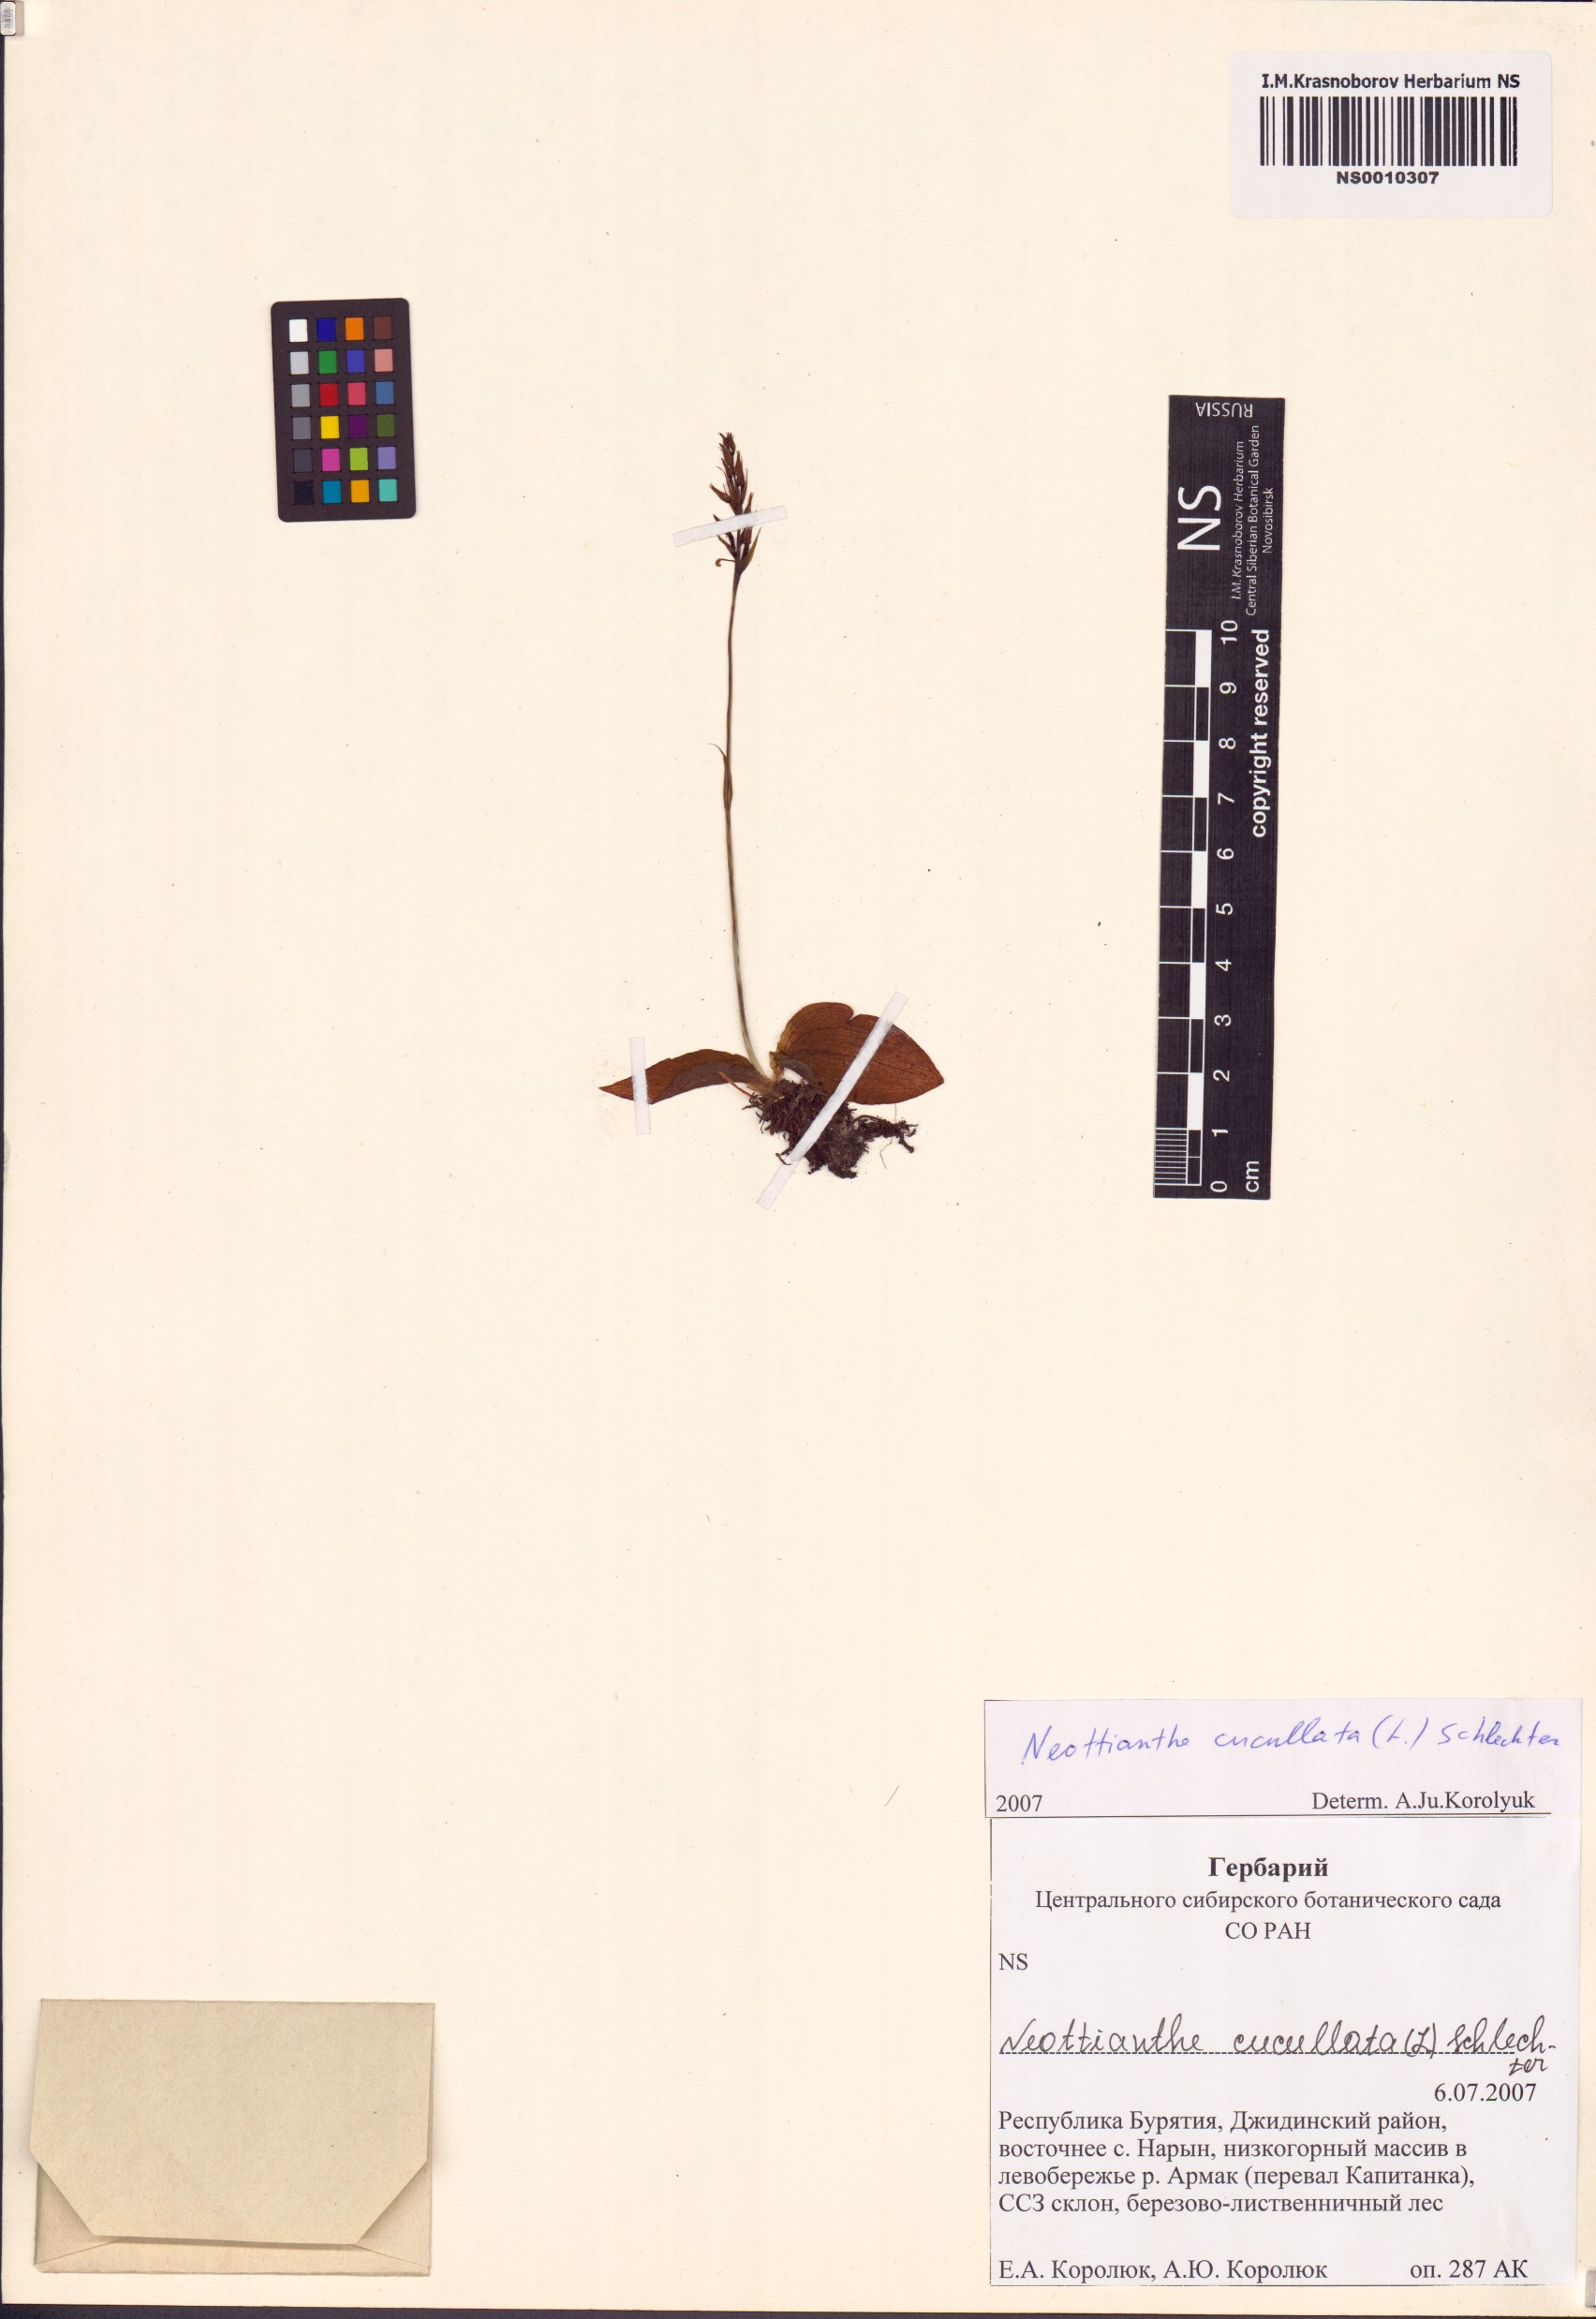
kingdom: Plantae
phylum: Tracheophyta
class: Liliopsida
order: Asparagales
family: Orchidaceae
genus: Hemipilia
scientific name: Hemipilia cucullata
